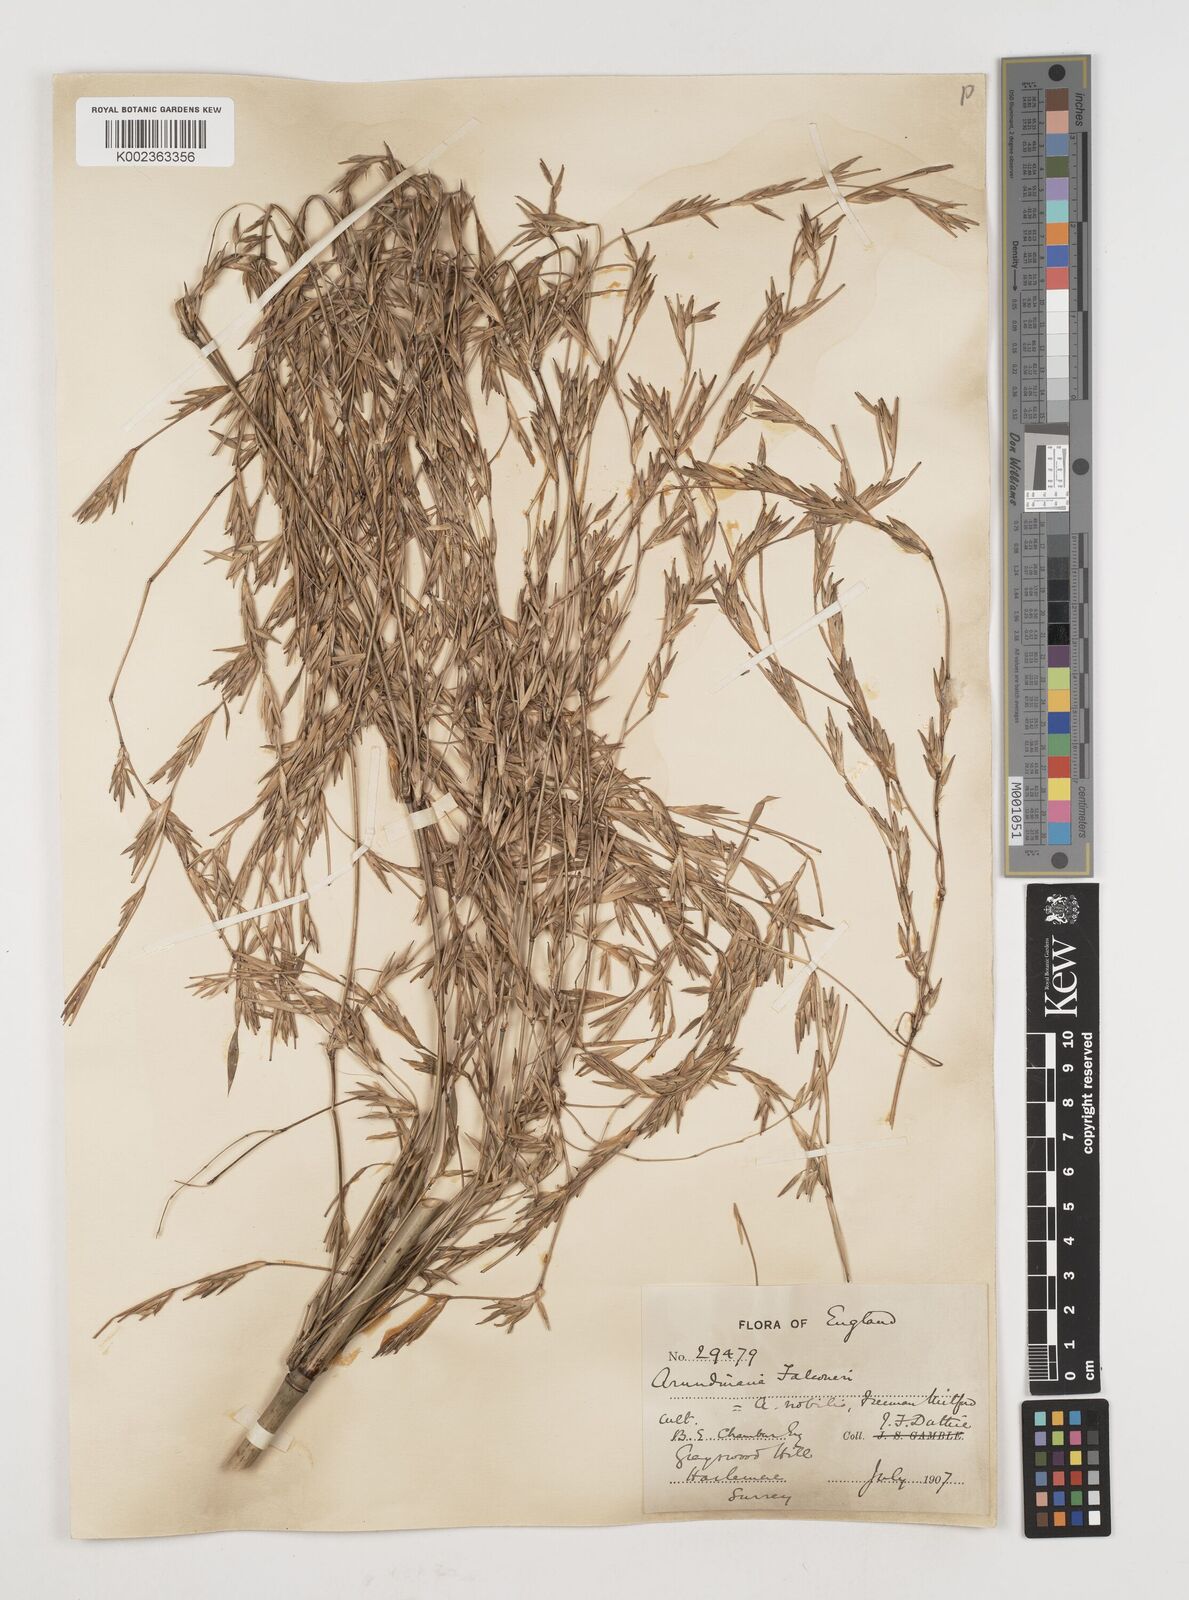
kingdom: Plantae
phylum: Tracheophyta
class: Liliopsida
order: Poales
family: Poaceae
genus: Himalayacalamus
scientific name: Himalayacalamus falconeri
